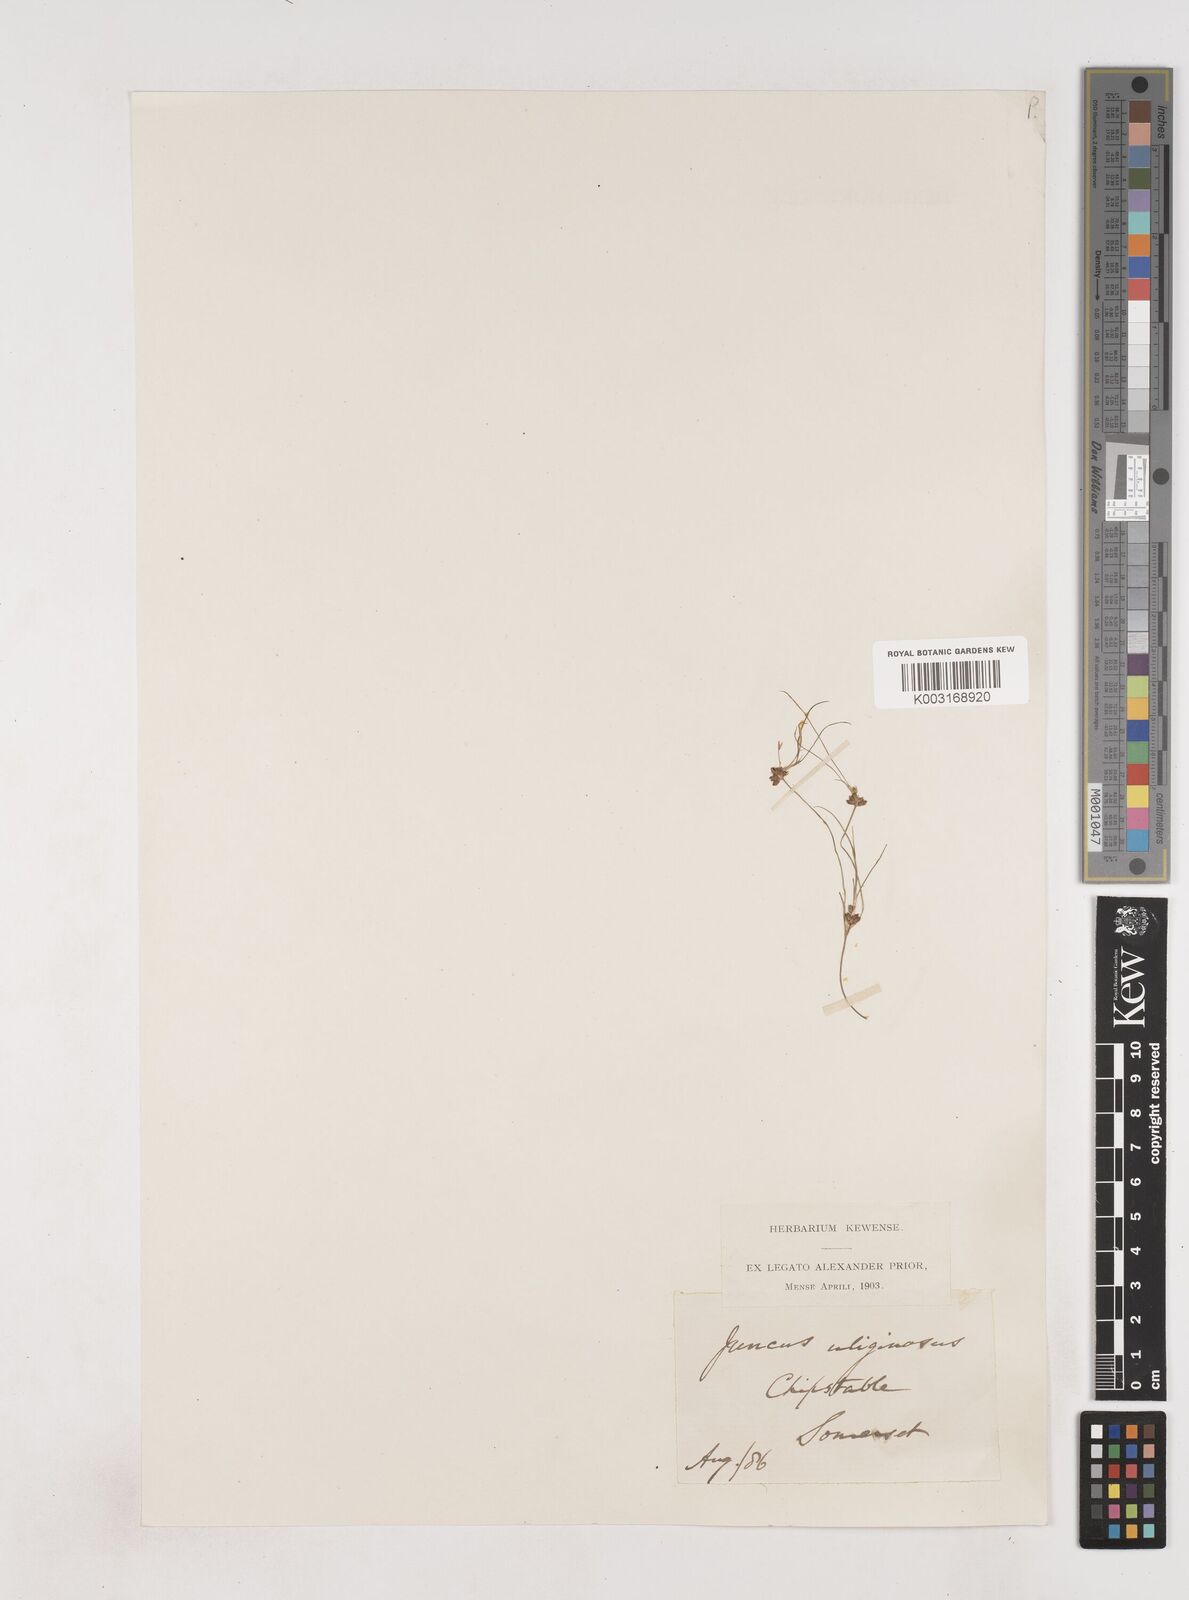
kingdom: Plantae
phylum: Tracheophyta
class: Liliopsida
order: Poales
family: Juncaceae
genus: Juncus
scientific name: Juncus bulbosus
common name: Bulbous rush
